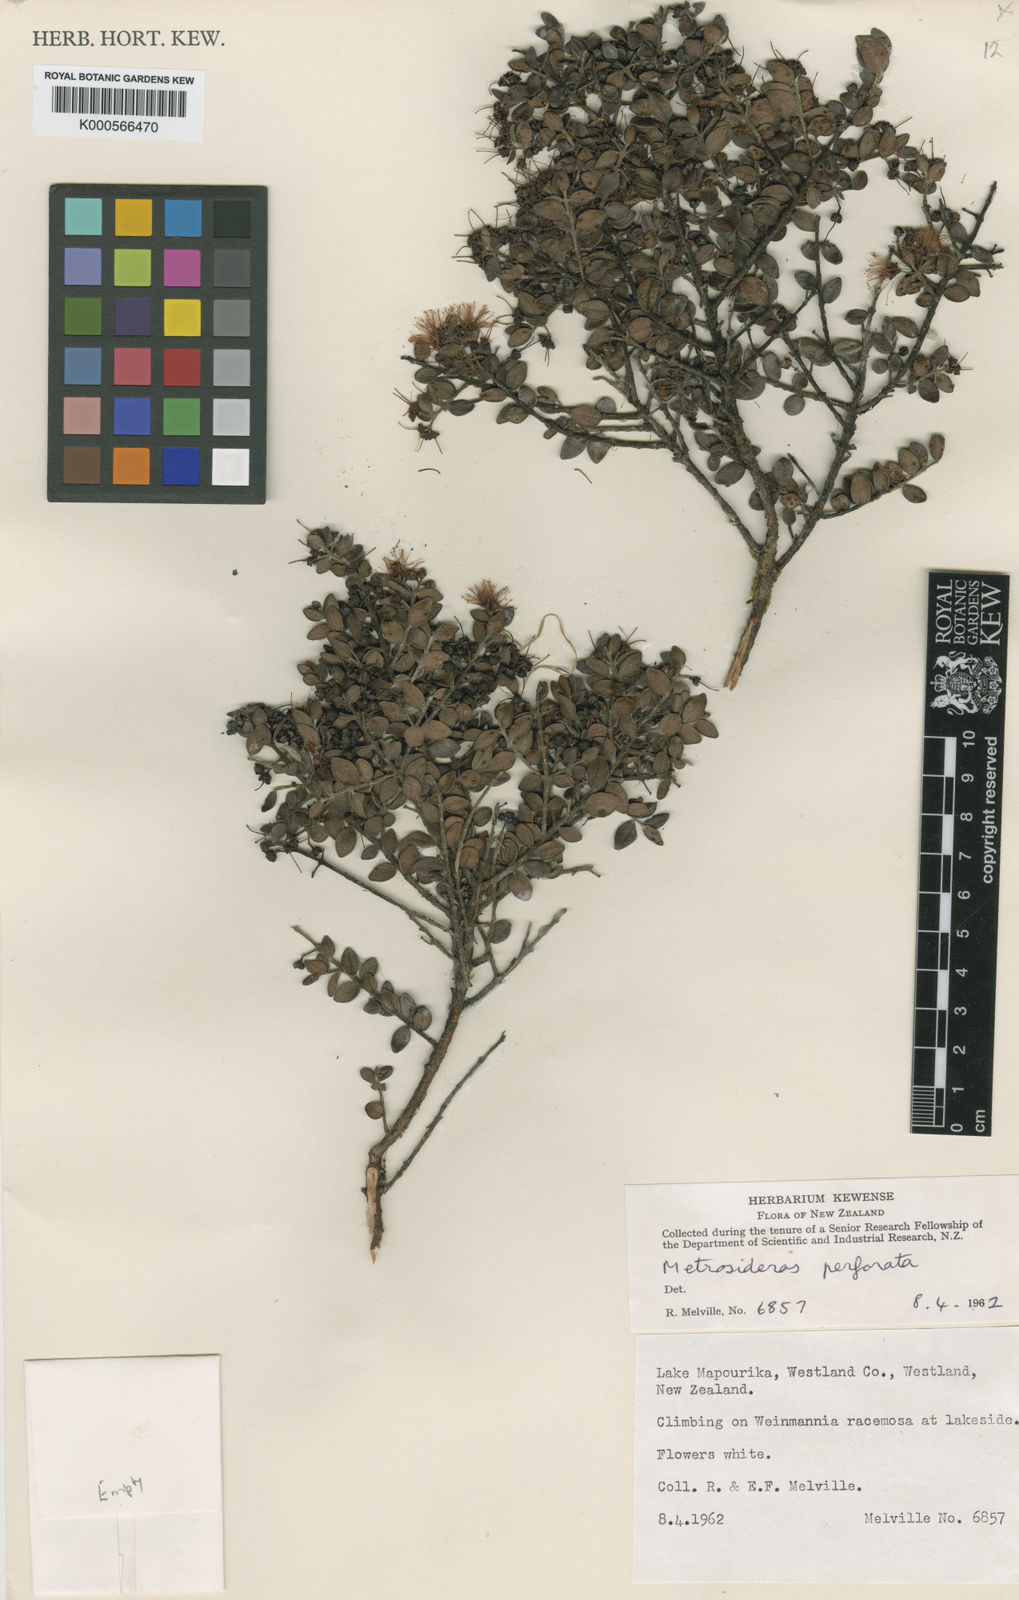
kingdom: Plantae
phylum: Tracheophyta
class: Magnoliopsida
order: Myrtales
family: Myrtaceae
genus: Metrosideros
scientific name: Metrosideros perforata
